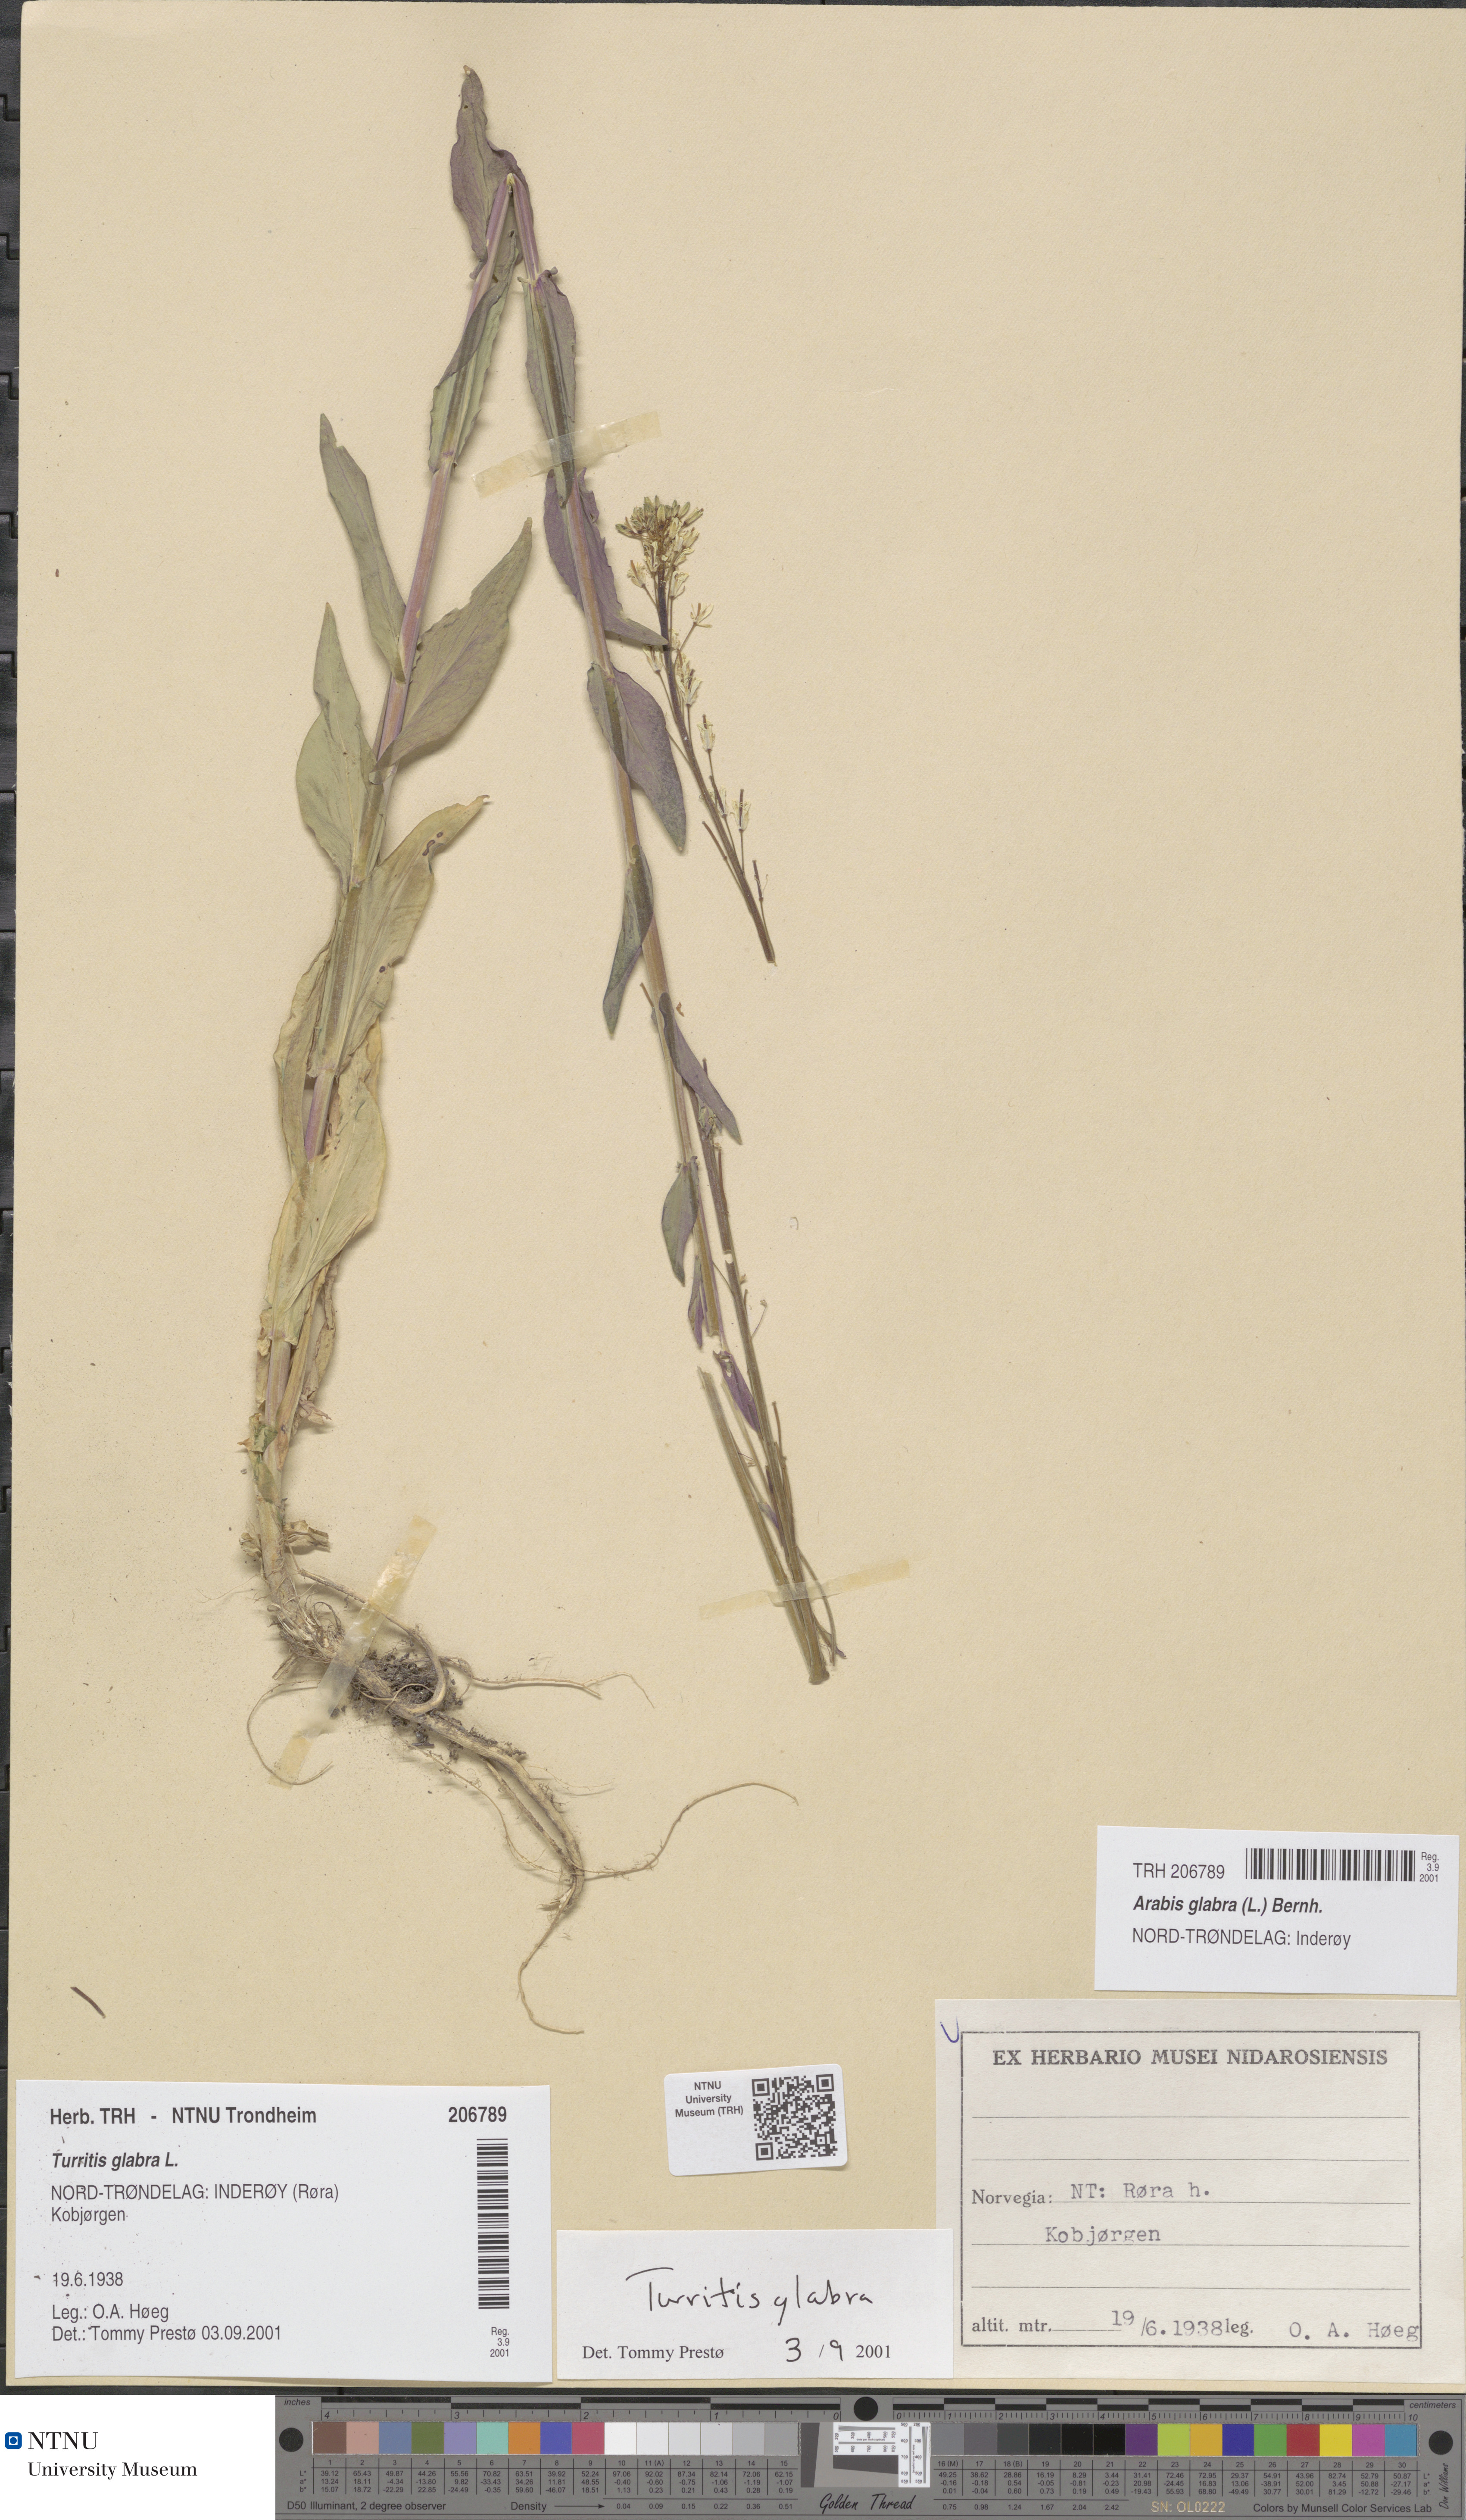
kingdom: Plantae
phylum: Tracheophyta
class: Magnoliopsida
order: Brassicales
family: Brassicaceae
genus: Turritis
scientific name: Turritis glabra
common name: Tower rockcress
